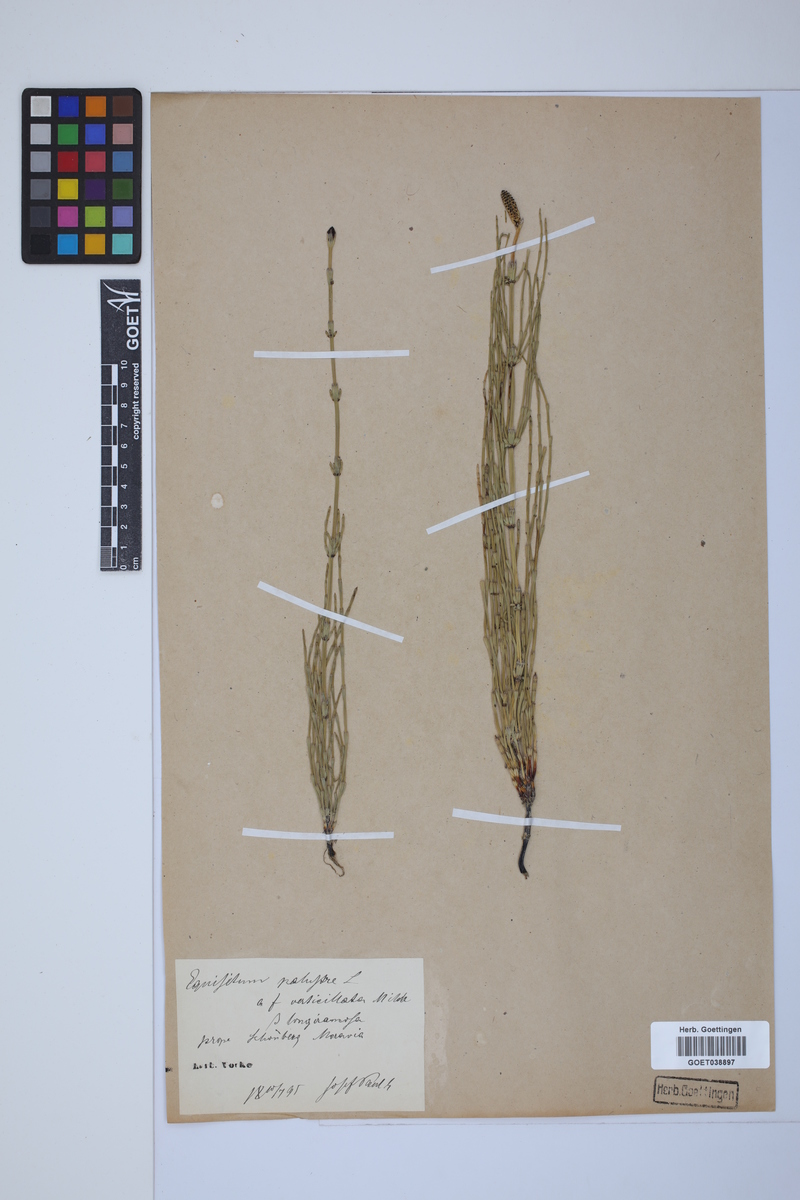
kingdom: Plantae
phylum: Tracheophyta
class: Polypodiopsida
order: Equisetales
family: Equisetaceae
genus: Equisetum
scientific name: Equisetum palustre
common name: Marsh horsetail
